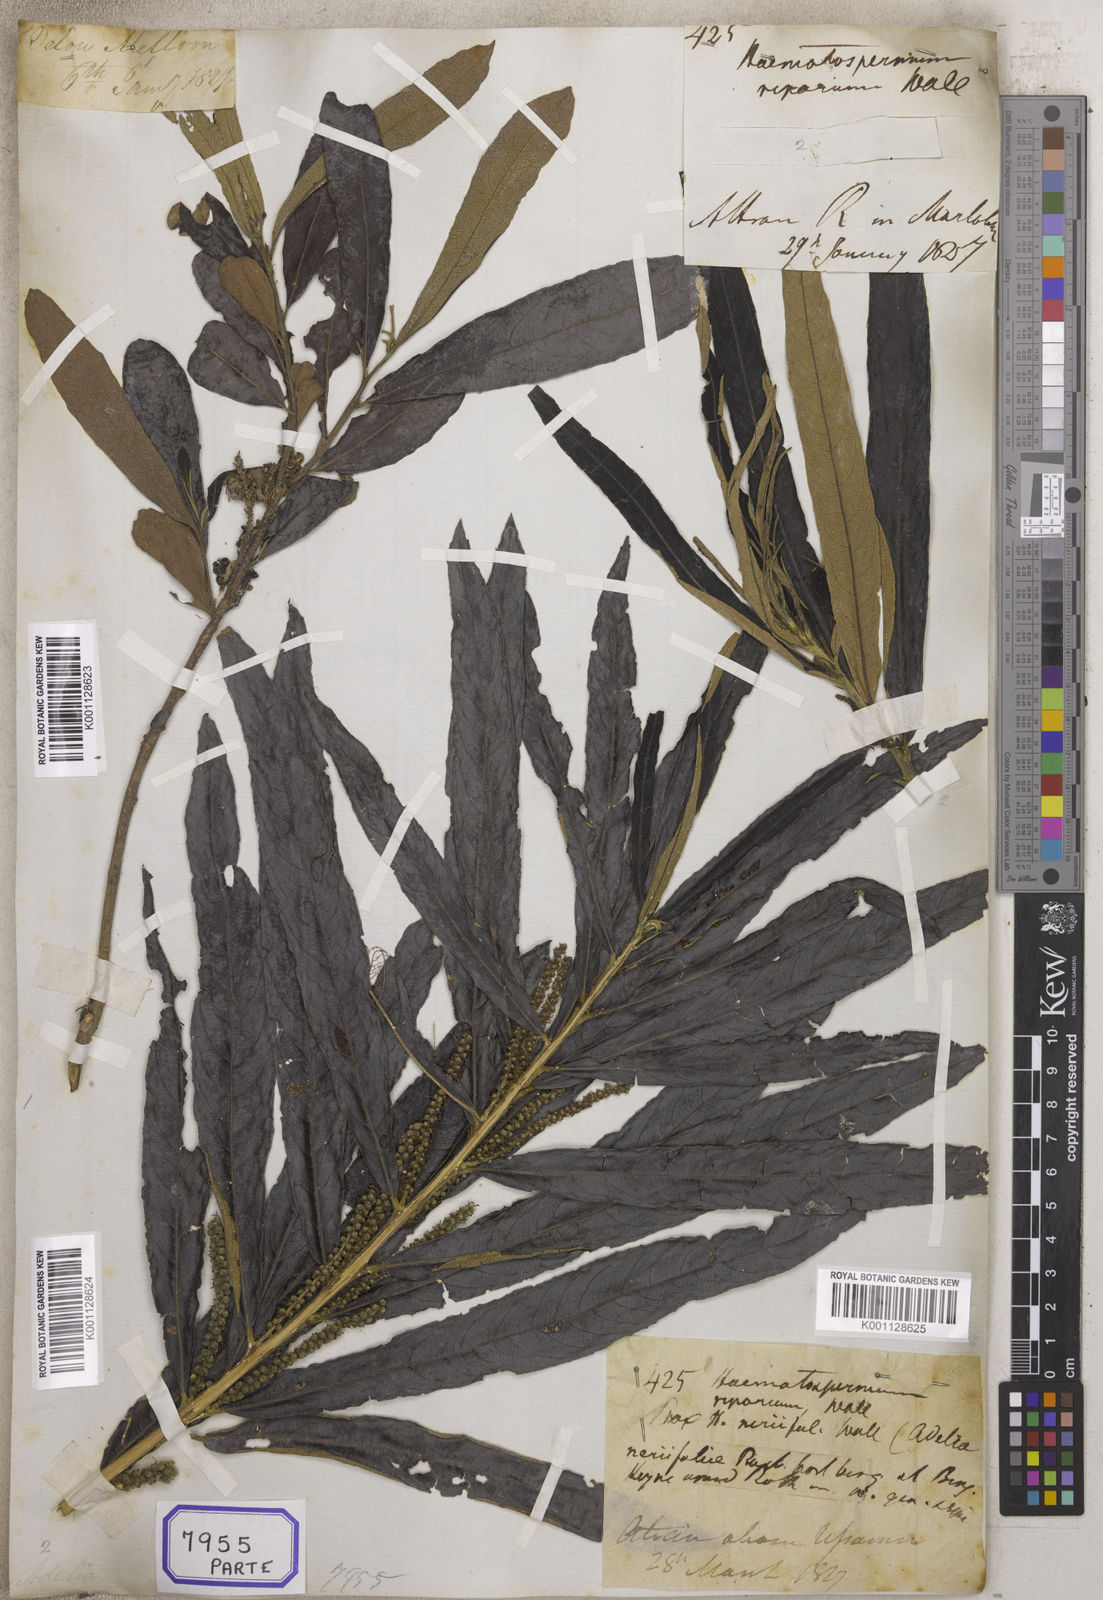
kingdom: Plantae
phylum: Tracheophyta
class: Magnoliopsida
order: Malpighiales
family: Euphorbiaceae
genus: Homonoia
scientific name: Homonoia
